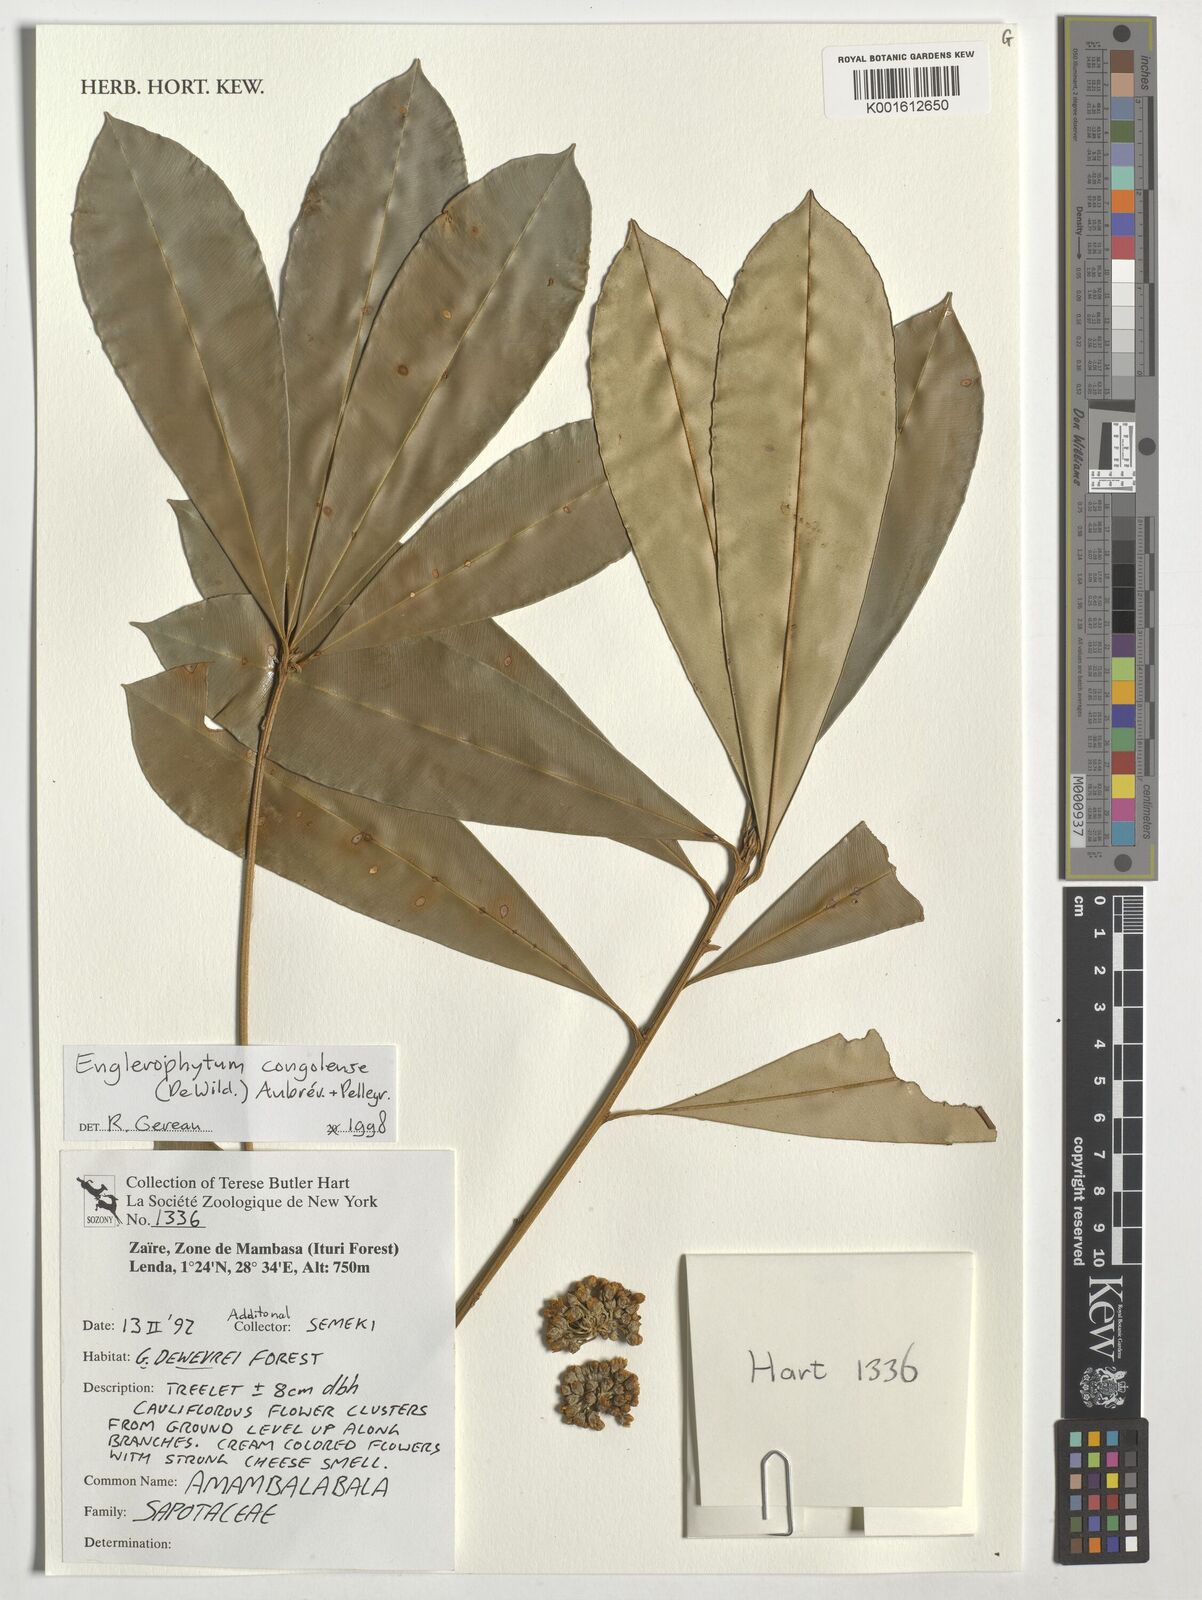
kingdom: Plantae
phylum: Tracheophyta
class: Magnoliopsida
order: Ericales
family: Sapotaceae
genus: Englerophytum
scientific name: Englerophytum congolense
